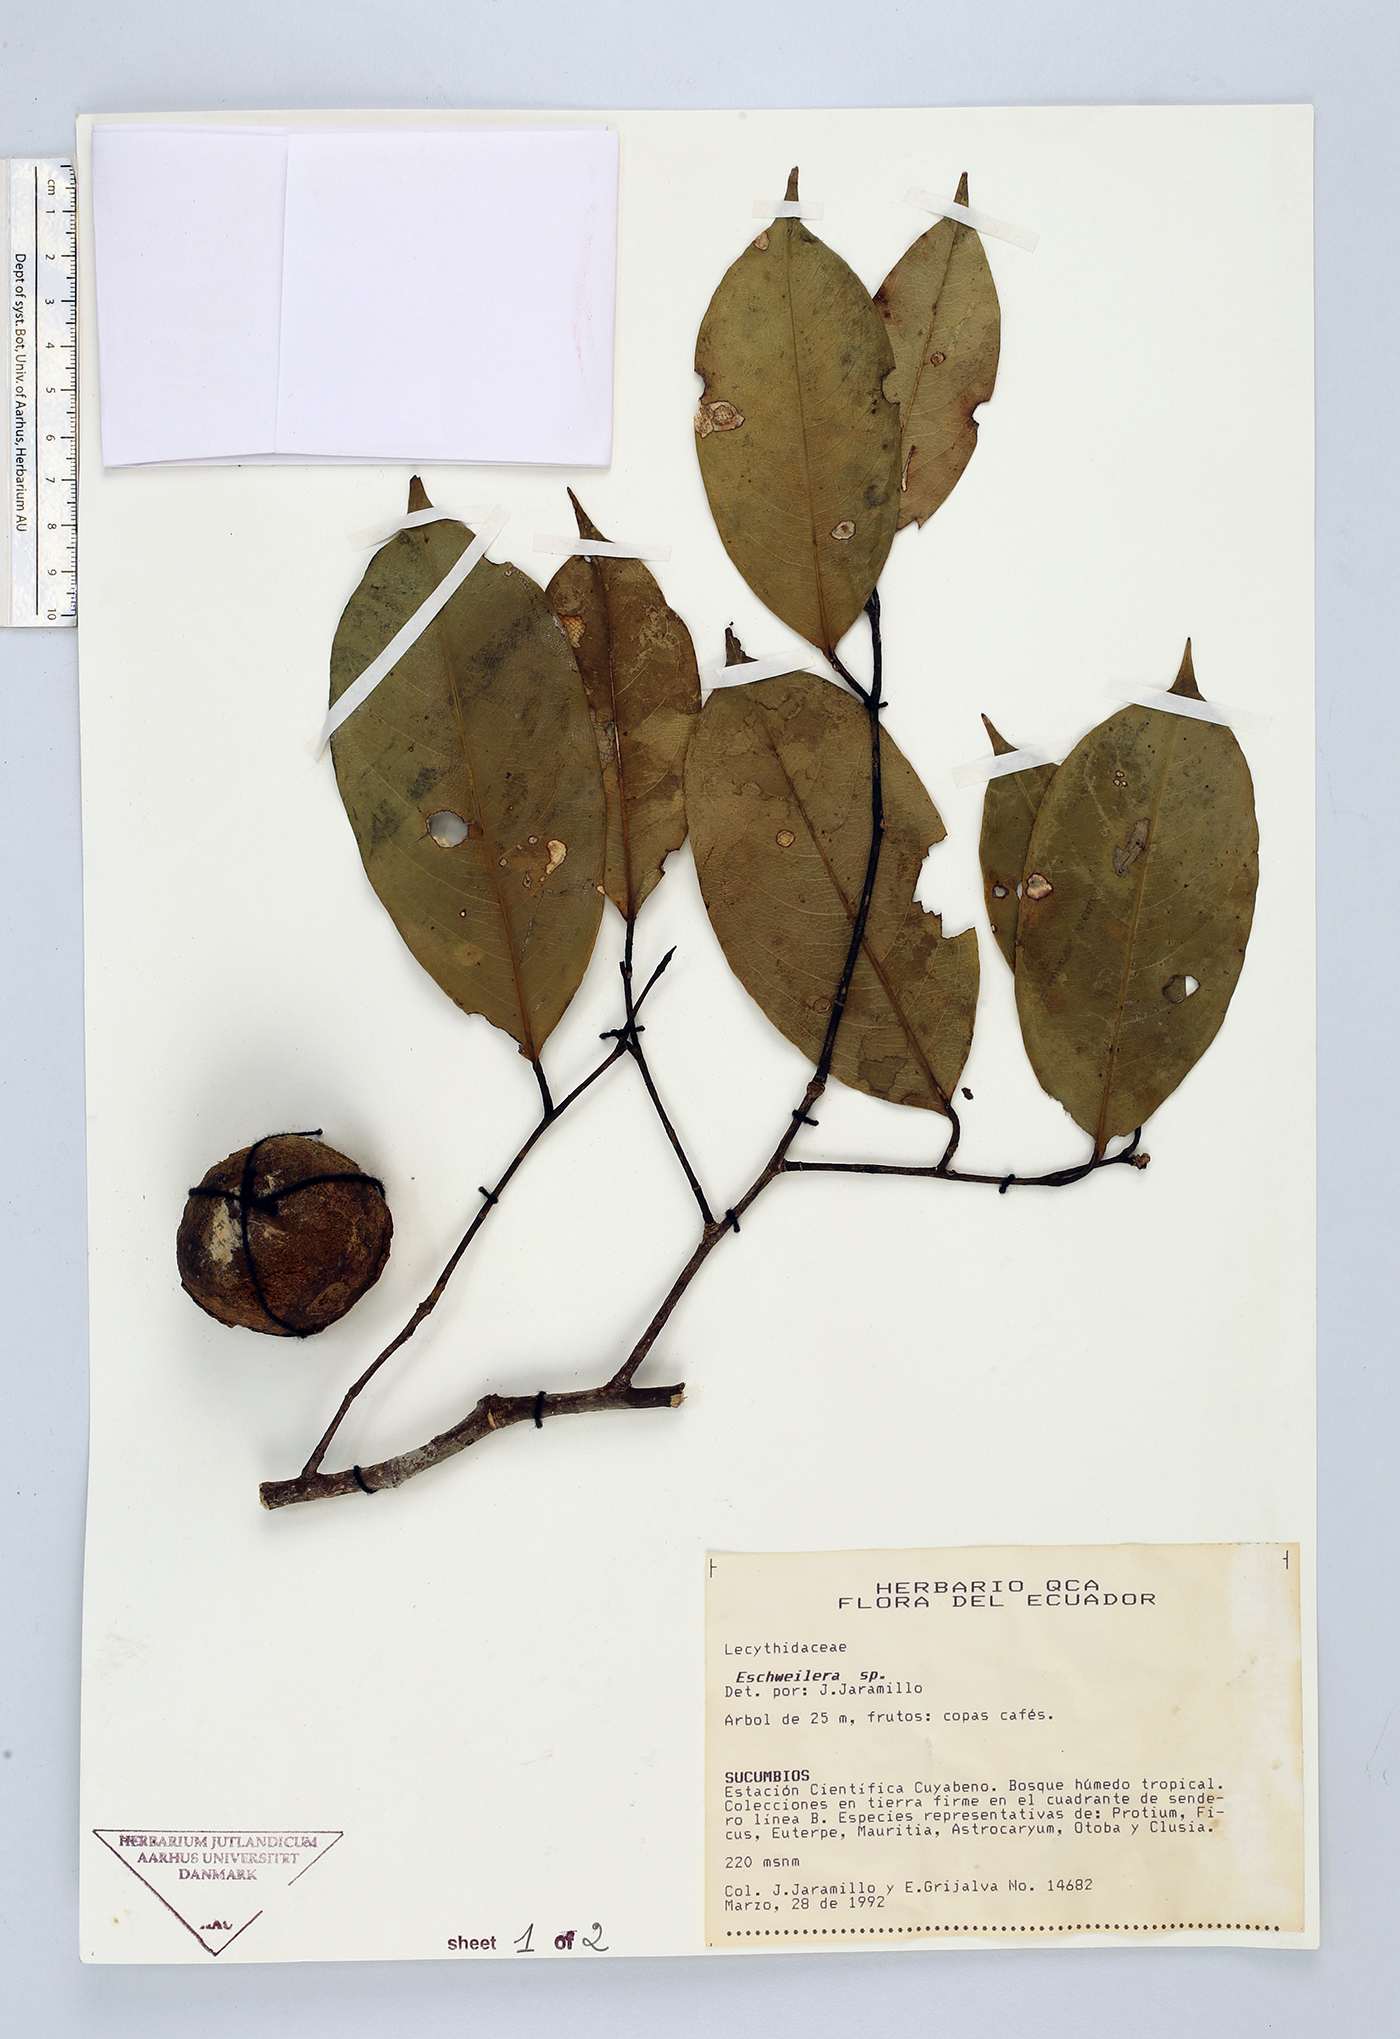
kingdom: Plantae
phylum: Tracheophyta
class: Magnoliopsida
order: Ericales
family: Lecythidaceae
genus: Eschweilera
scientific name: Eschweilera
